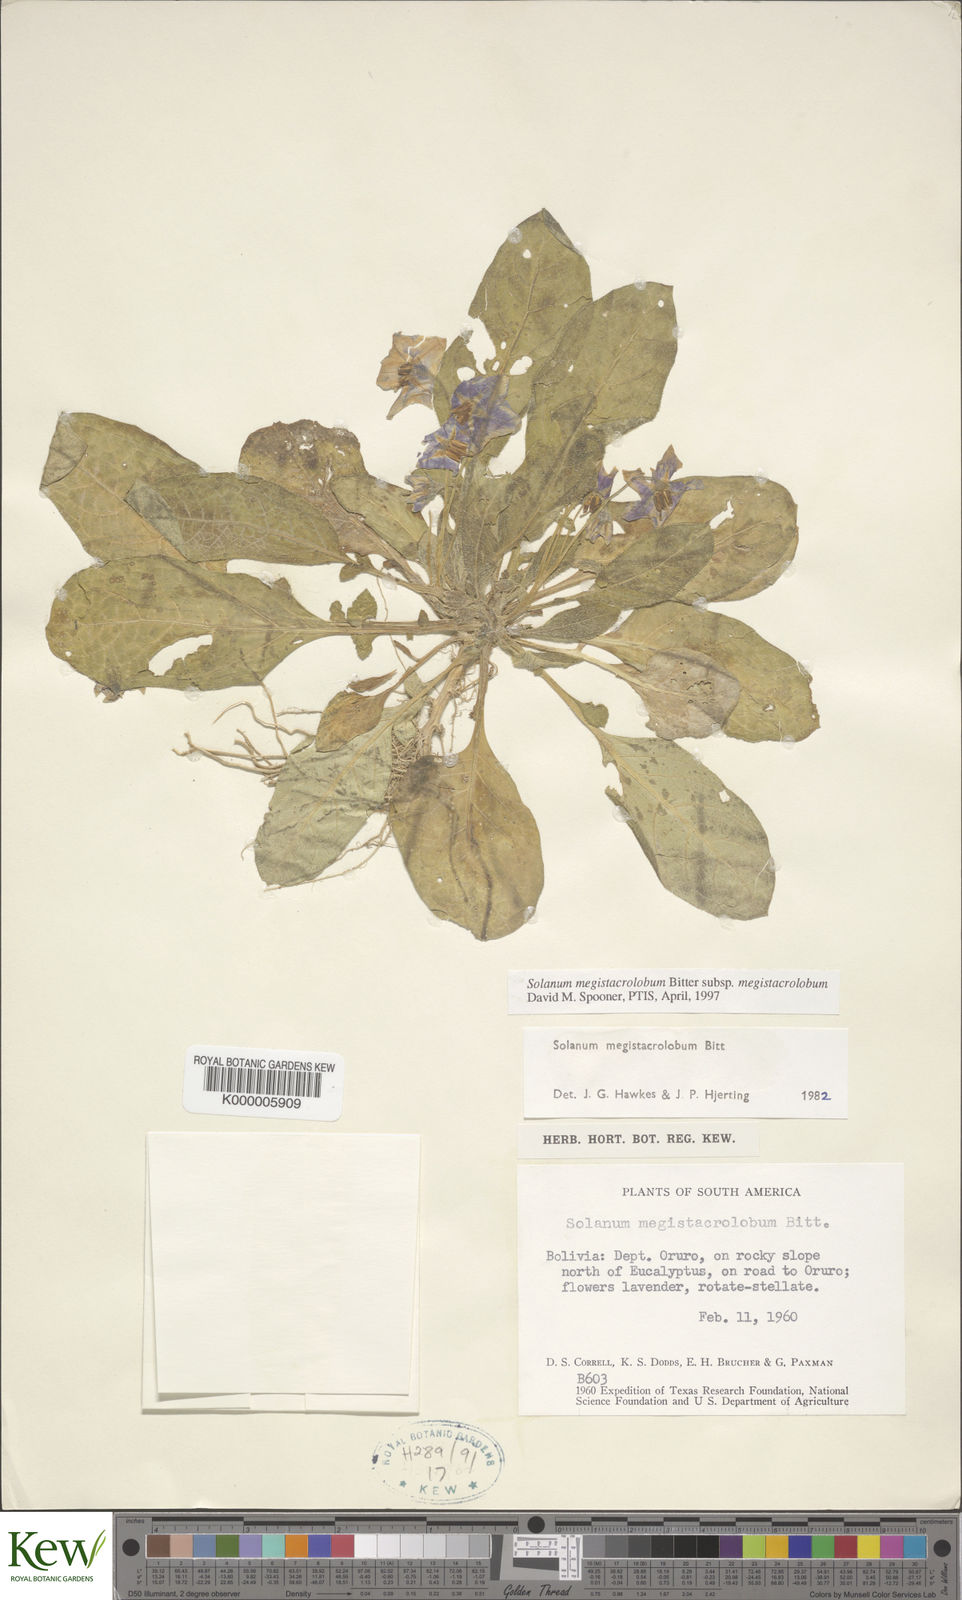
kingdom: Plantae
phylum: Tracheophyta
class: Magnoliopsida
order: Solanales
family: Solanaceae
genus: Solanum
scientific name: Solanum boliviense
